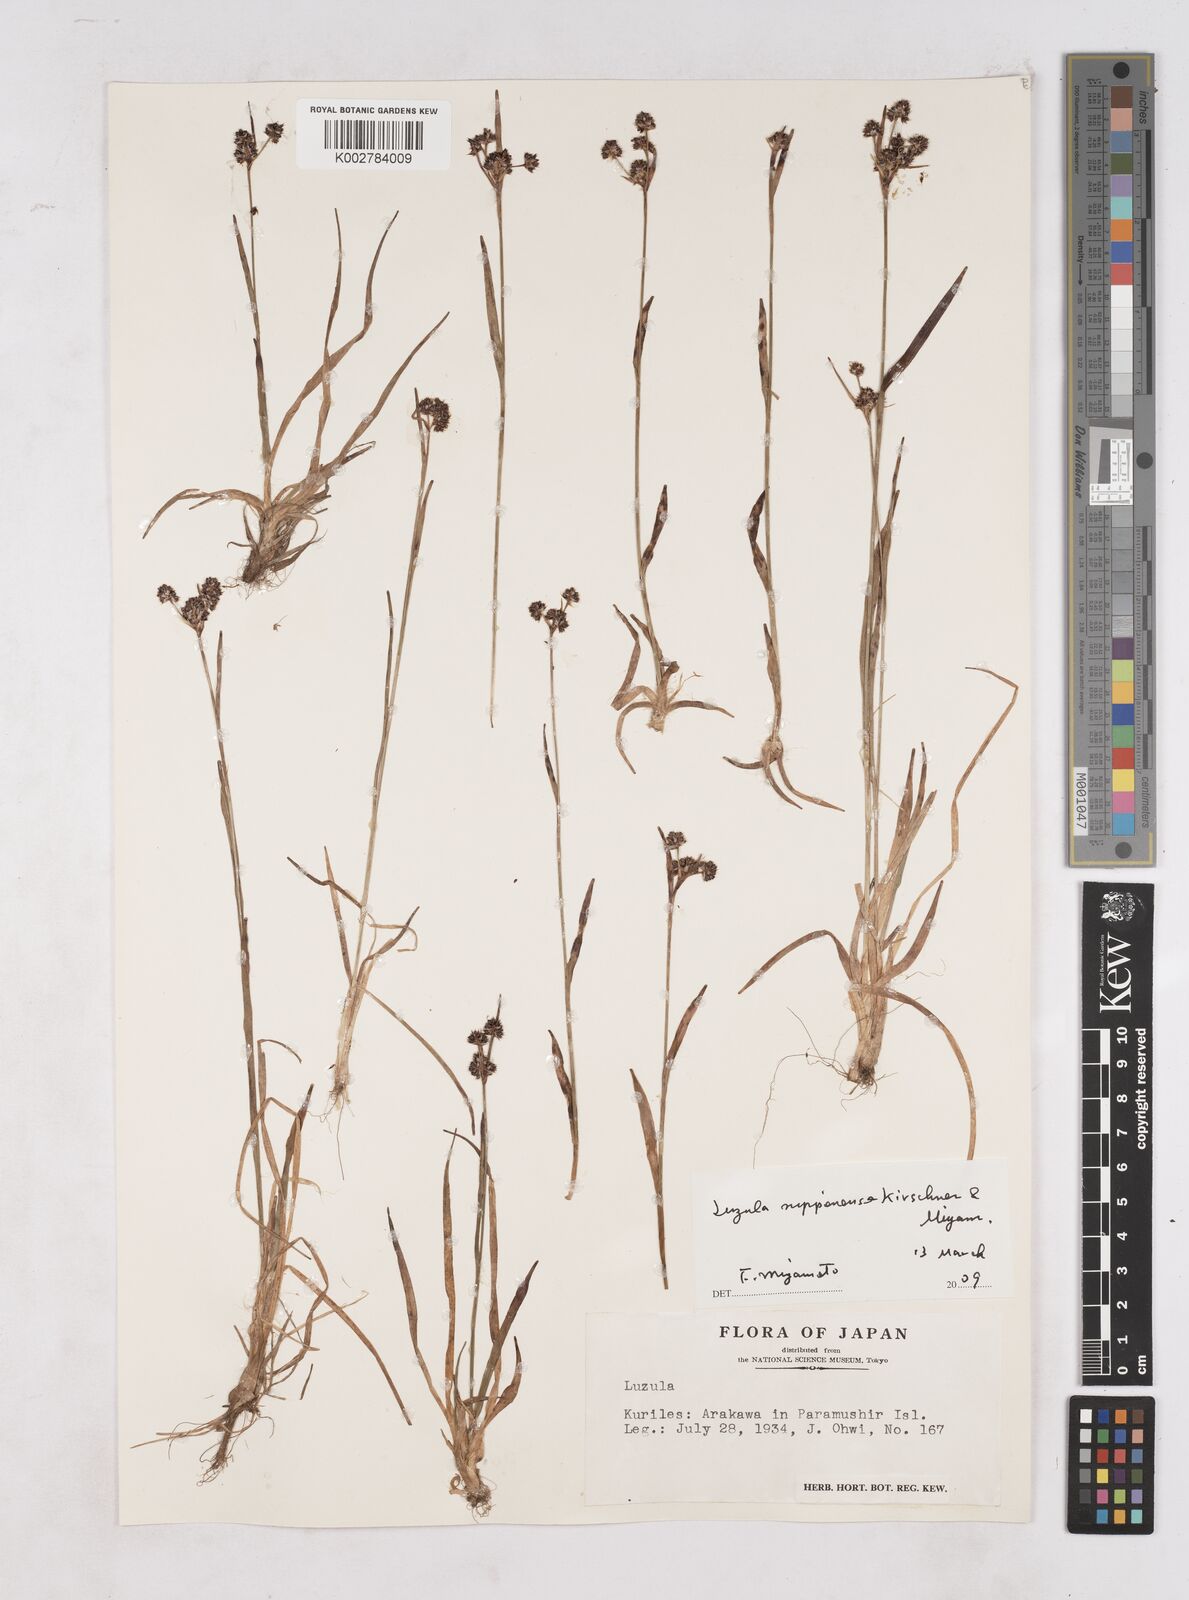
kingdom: Plantae
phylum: Tracheophyta
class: Liliopsida
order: Poales
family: Juncaceae
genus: Luzula
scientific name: Luzula nipponica
